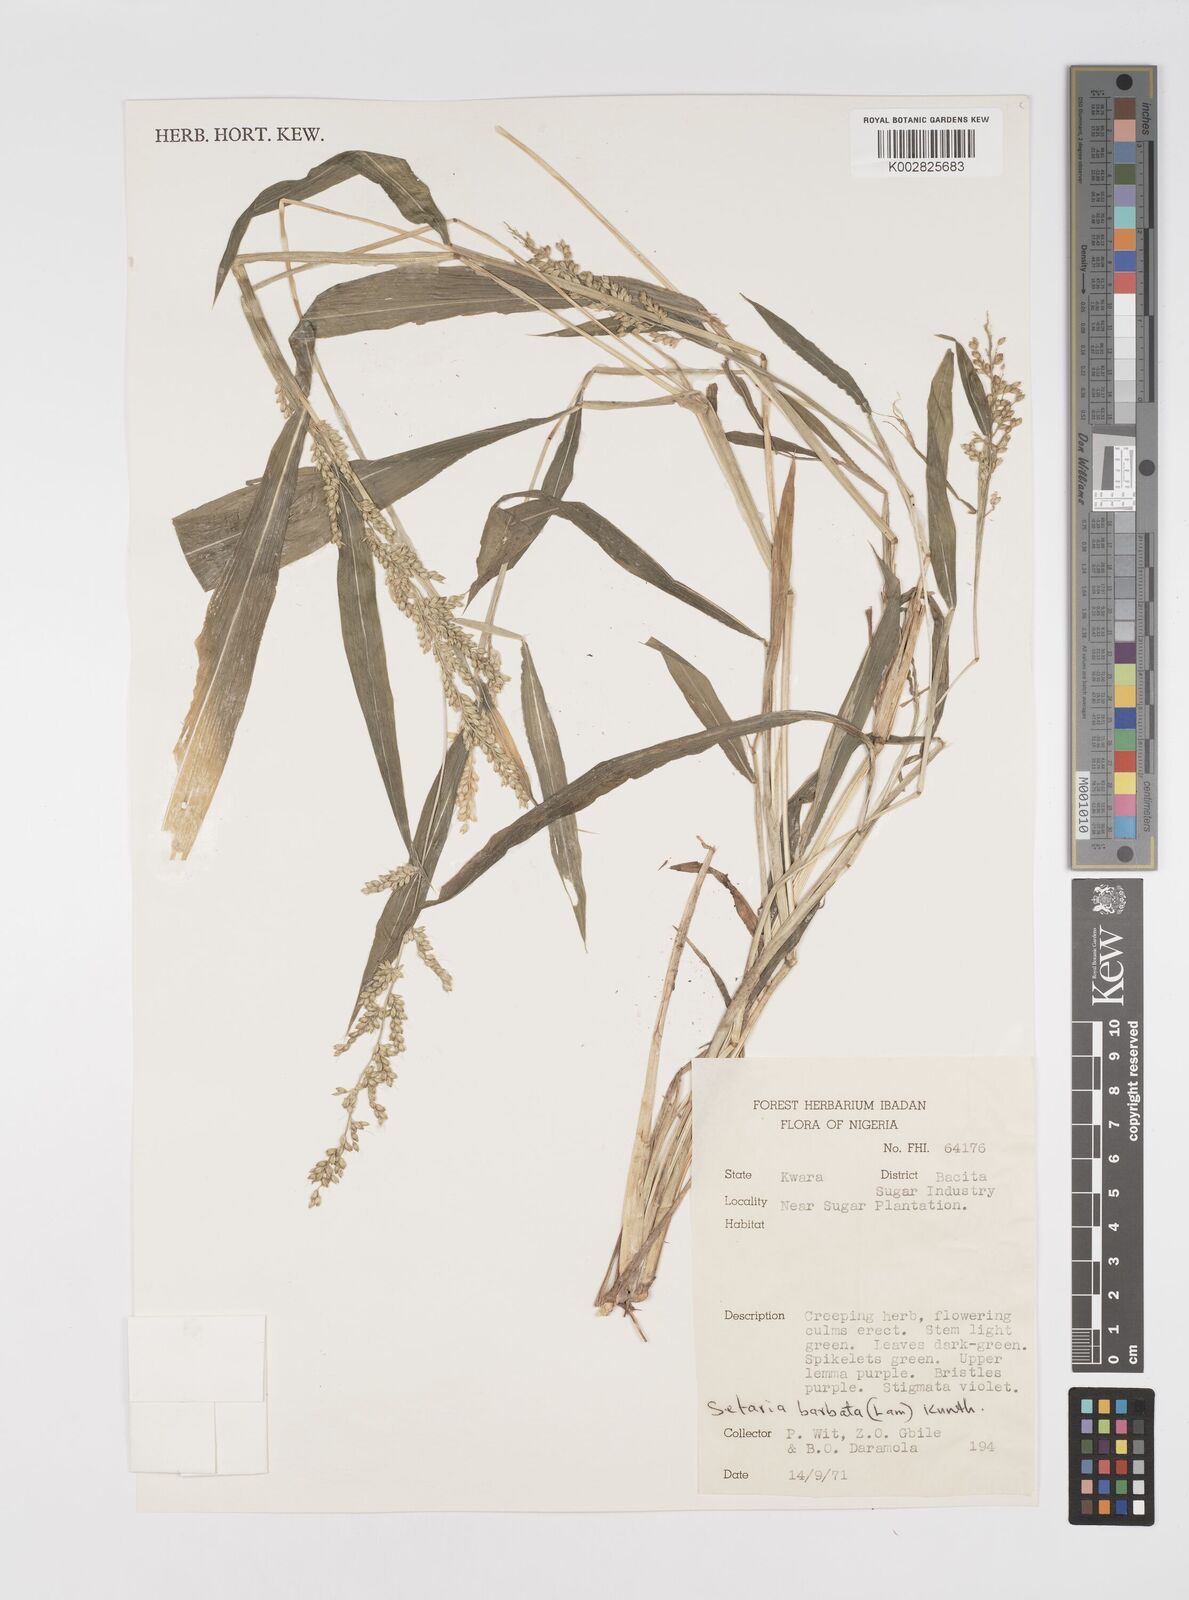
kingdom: Plantae
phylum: Tracheophyta
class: Liliopsida
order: Poales
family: Poaceae
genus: Setaria
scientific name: Setaria barbata
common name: East indian bristlegrass
